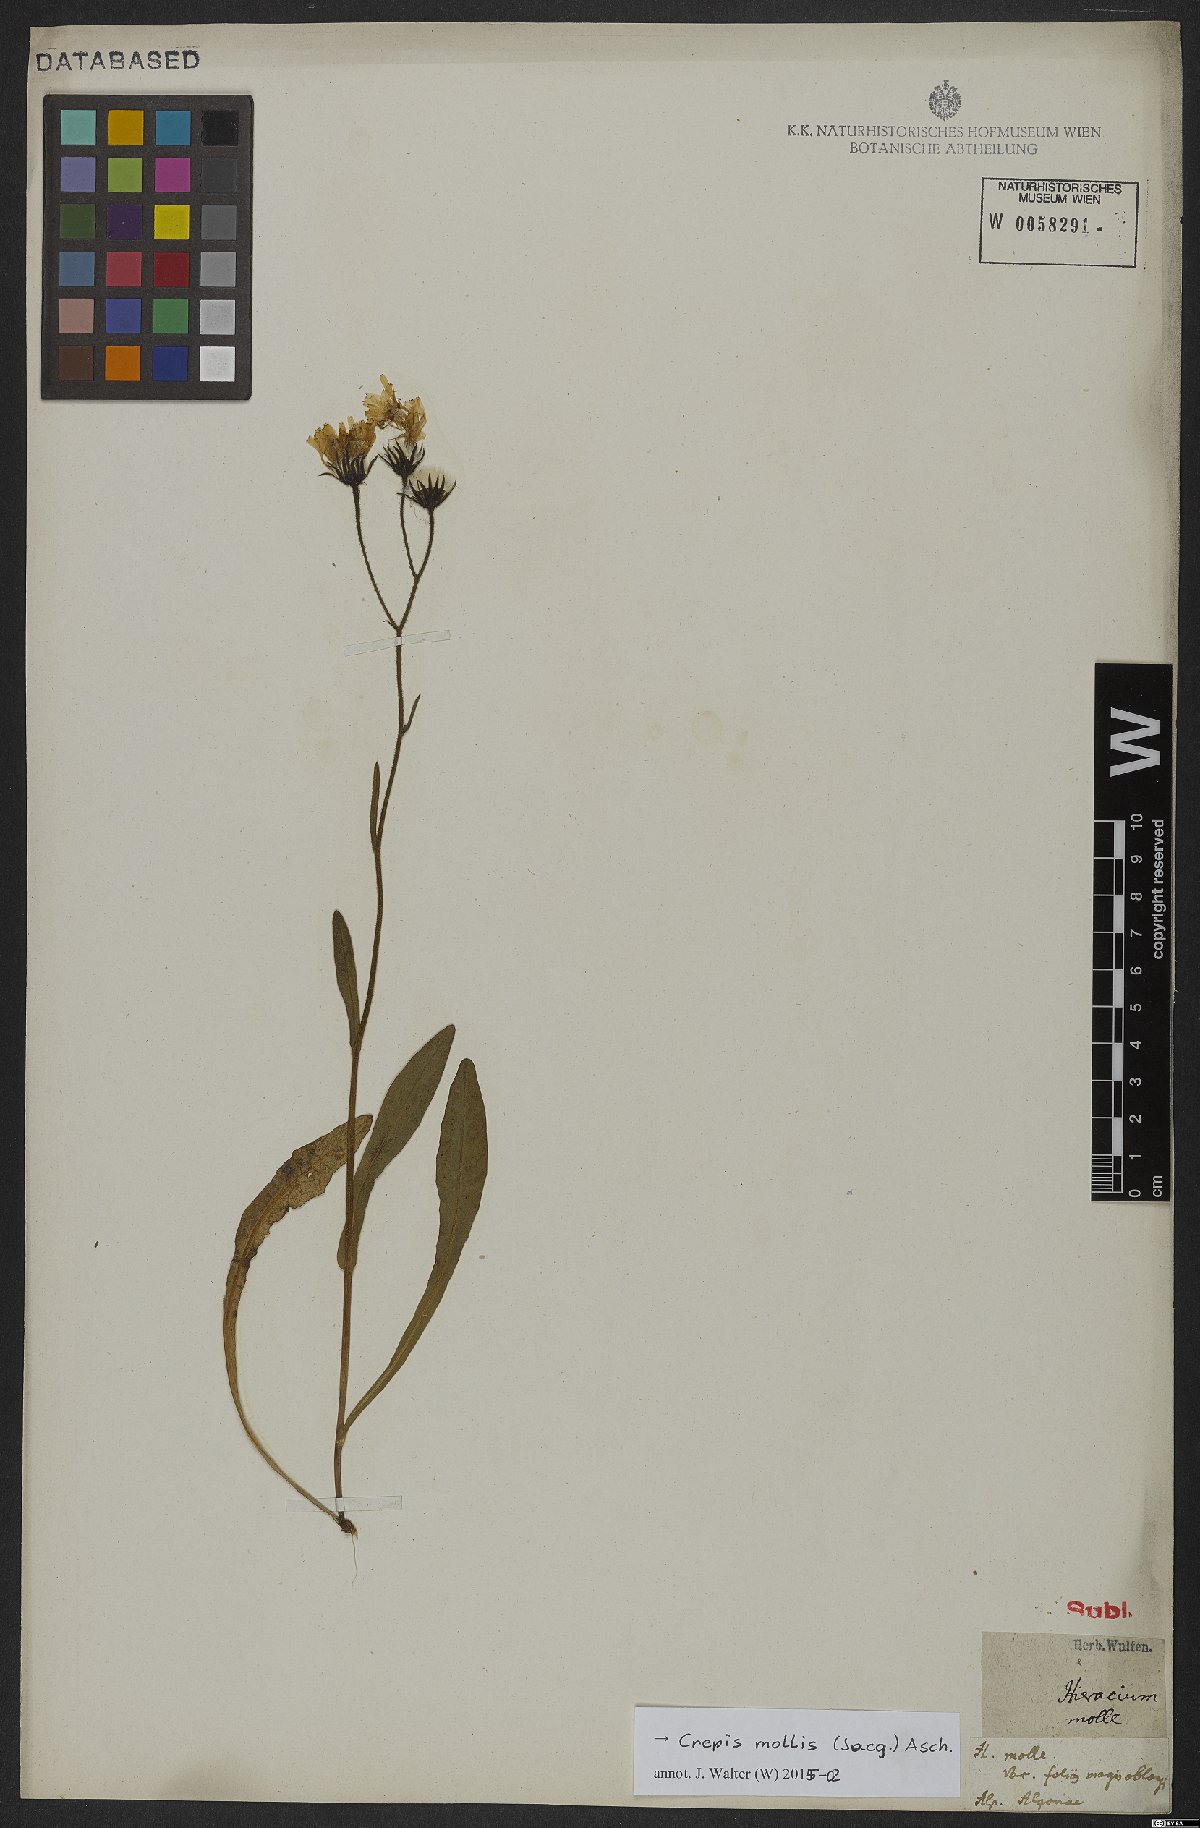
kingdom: Plantae
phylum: Tracheophyta
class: Magnoliopsida
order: Asterales
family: Asteraceae
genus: Crepis
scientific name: Crepis mollis
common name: Northern hawk's-beard
